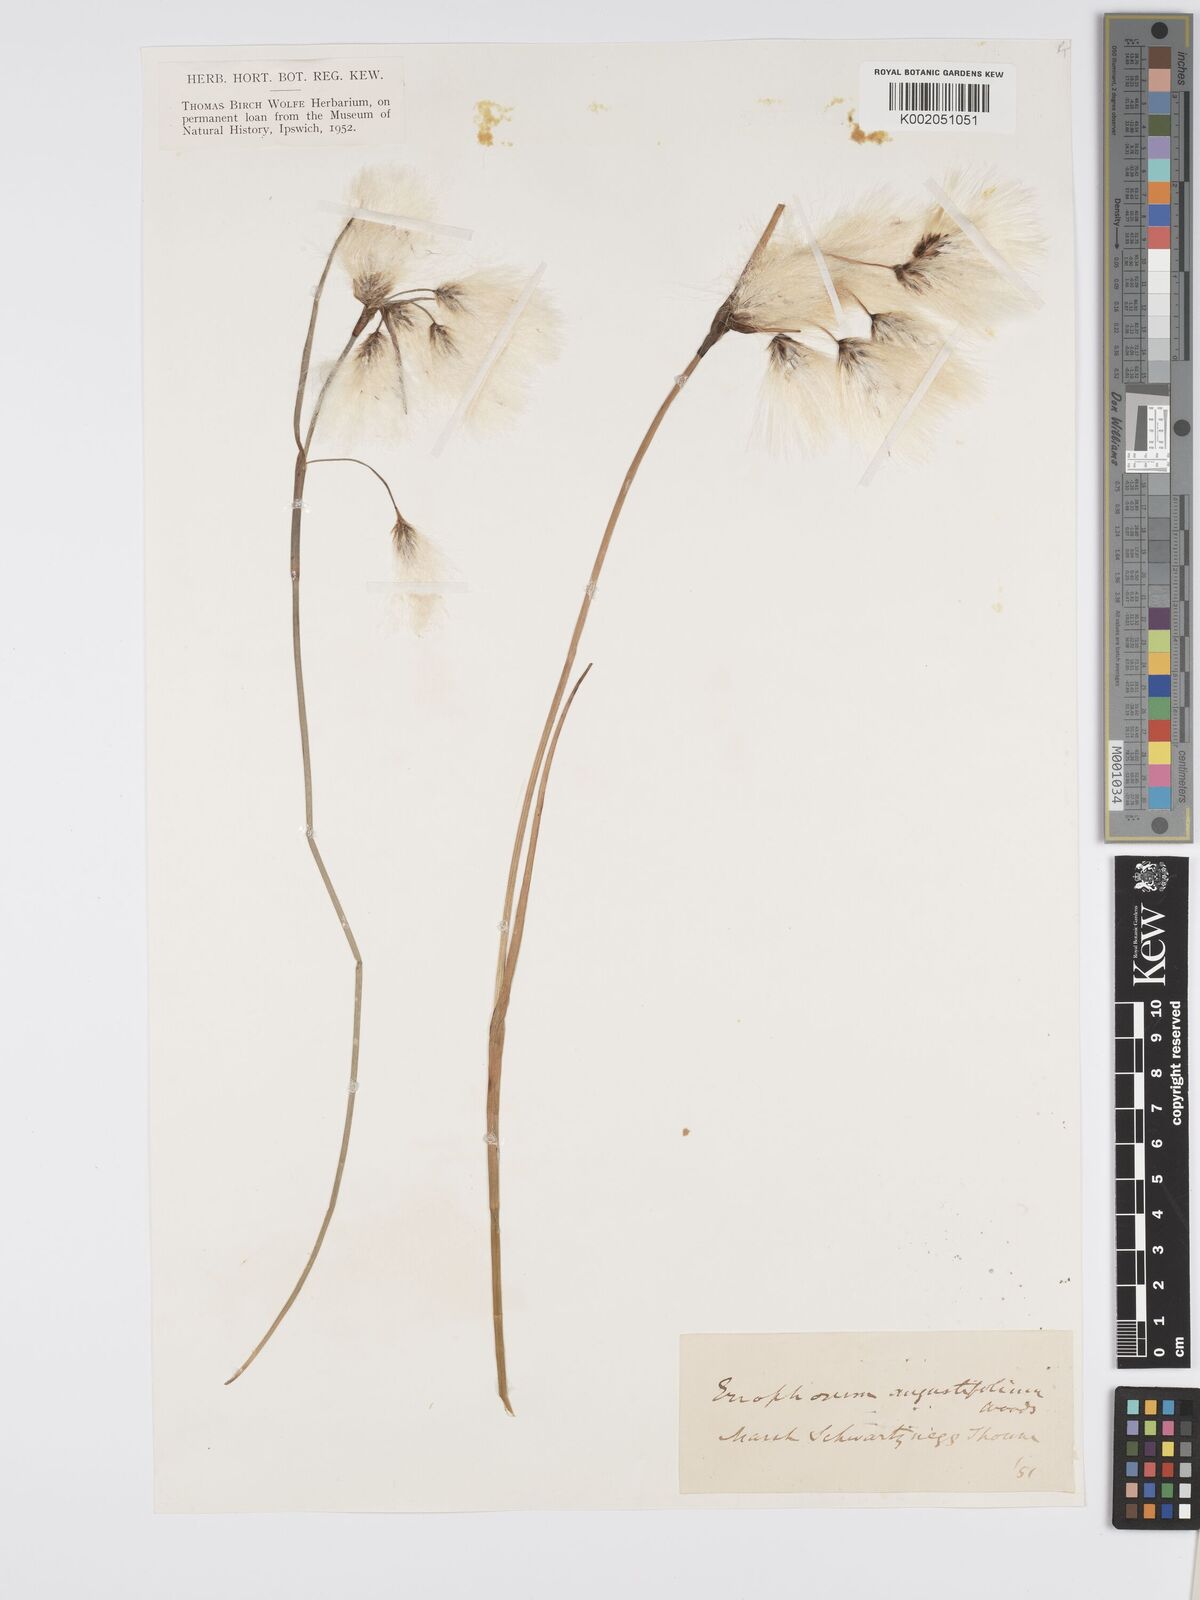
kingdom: Plantae
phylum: Tracheophyta
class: Liliopsida
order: Poales
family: Cyperaceae
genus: Eriophorum
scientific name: Eriophorum angustifolium
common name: Common cottongrass
